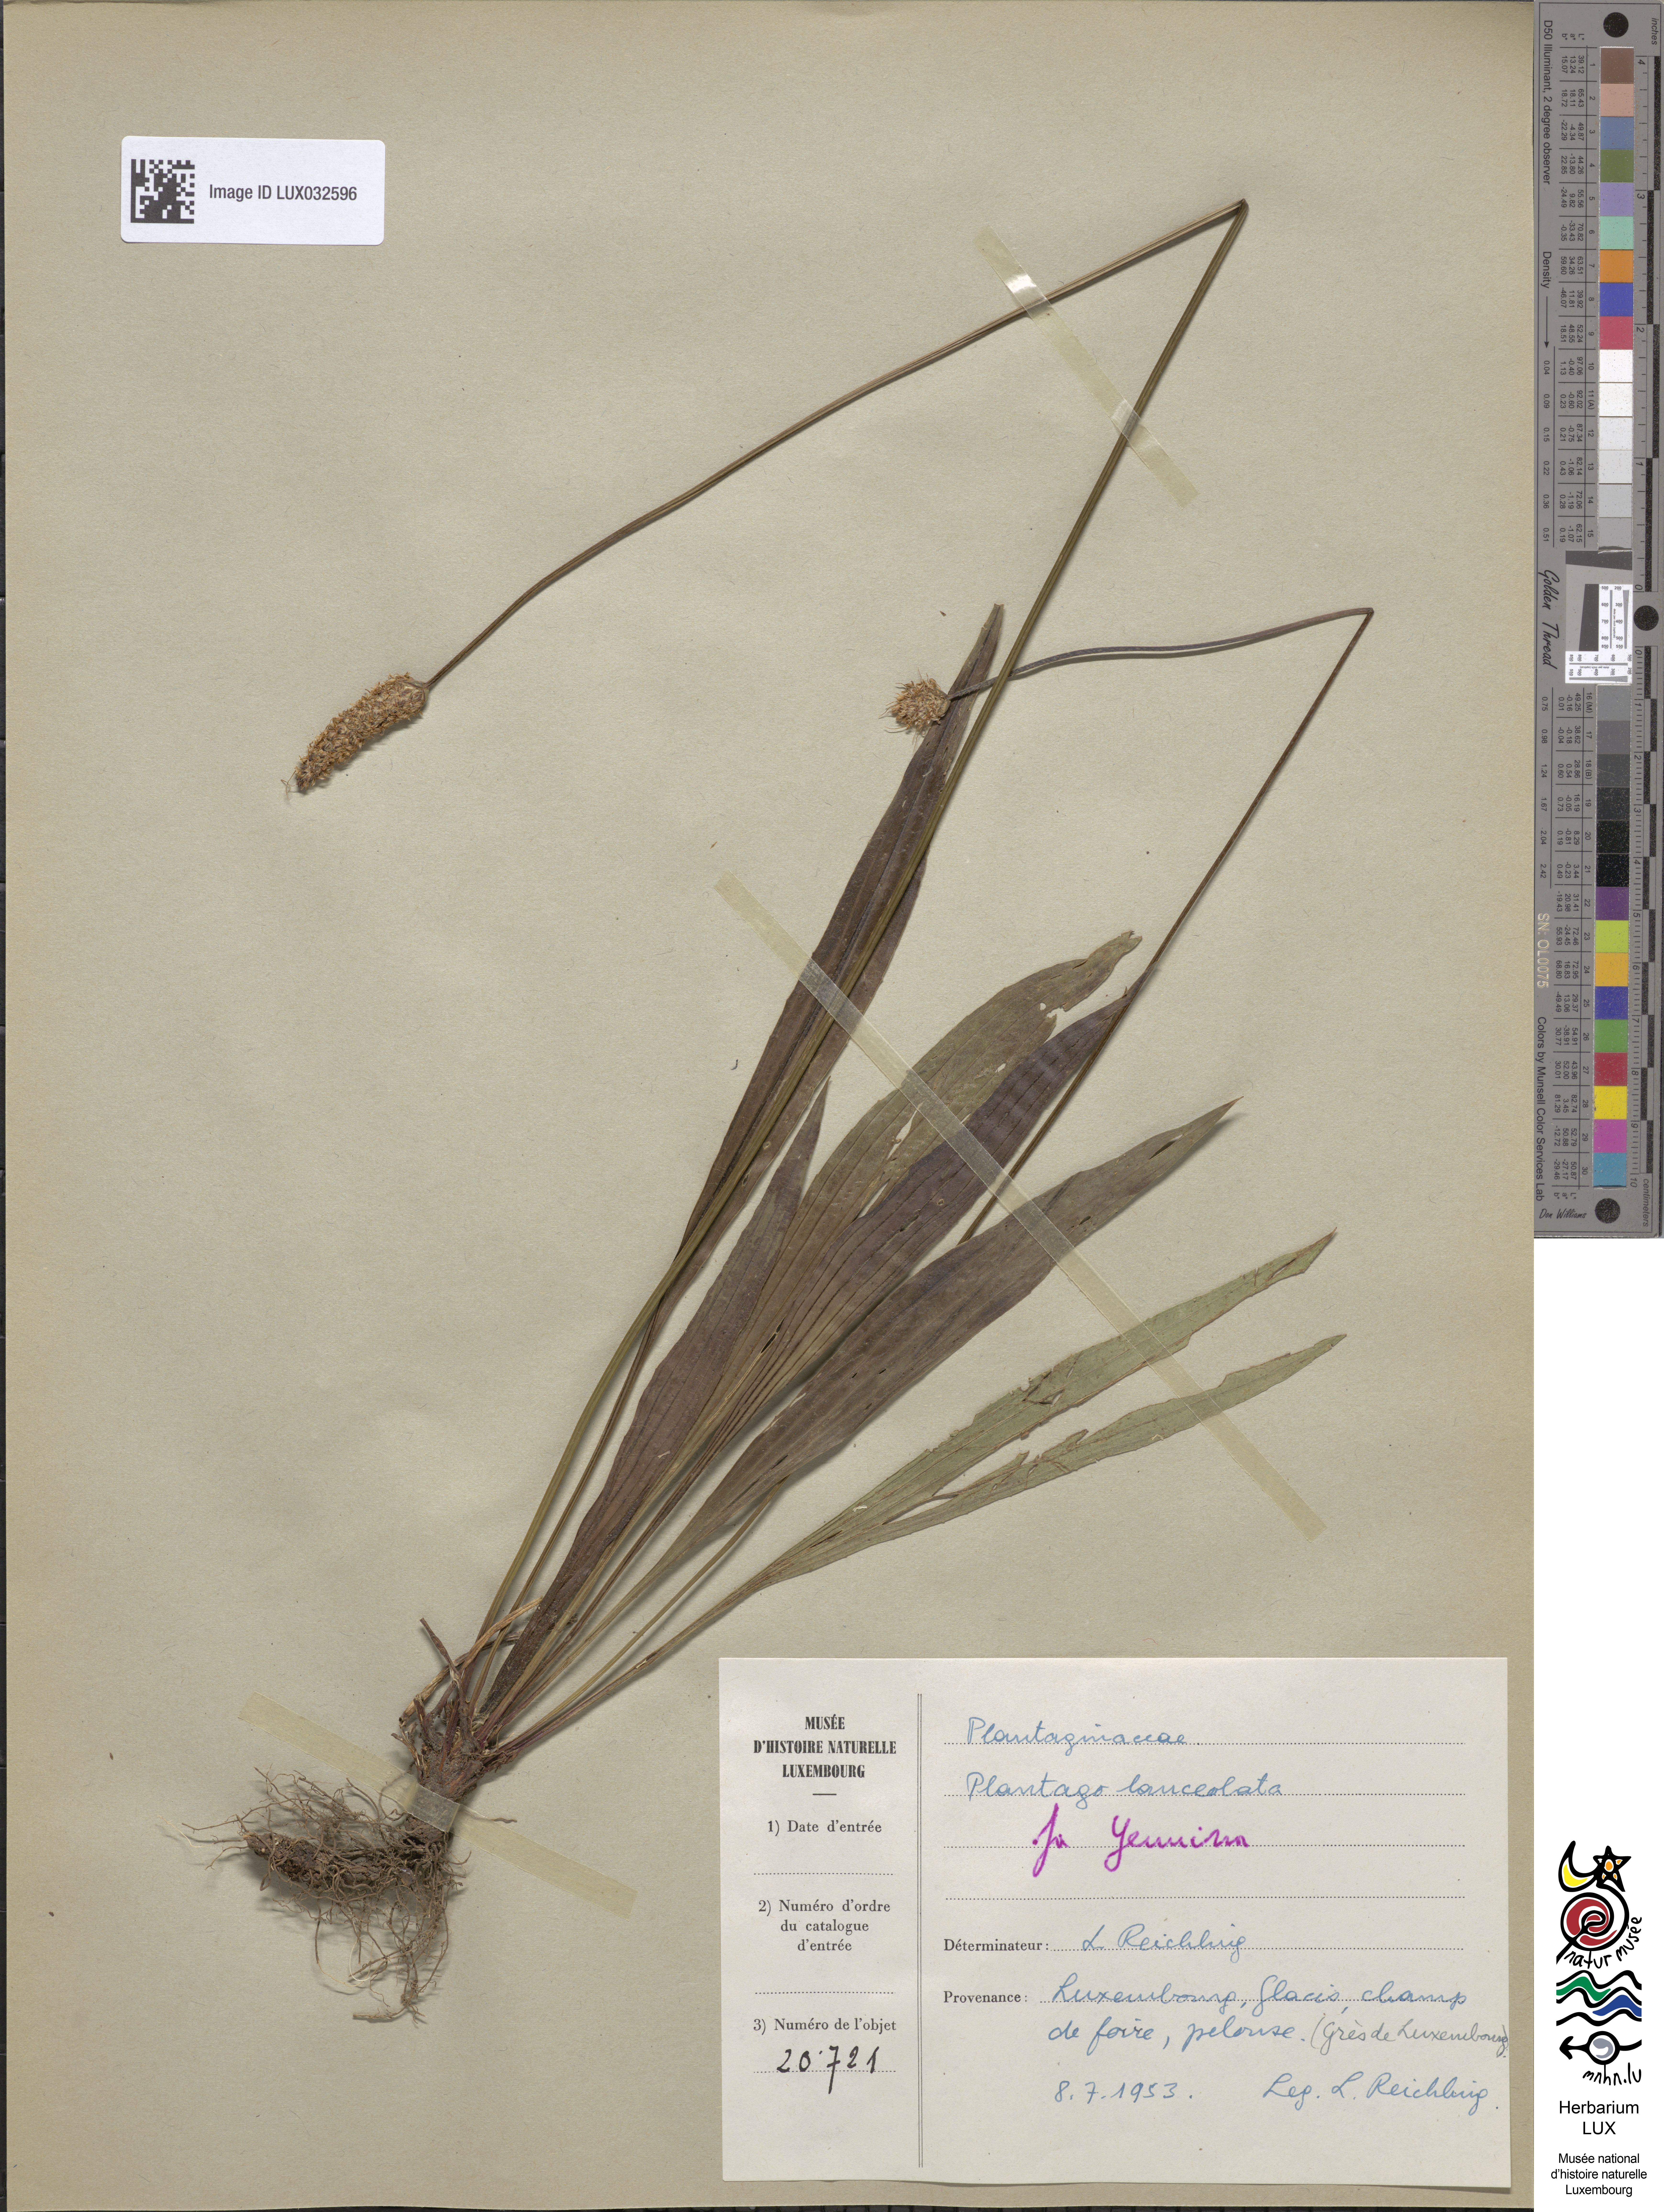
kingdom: Plantae
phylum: Tracheophyta
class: Magnoliopsida
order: Lamiales
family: Plantaginaceae
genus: Plantago
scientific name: Plantago lanceolata
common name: Ribwort plantain
